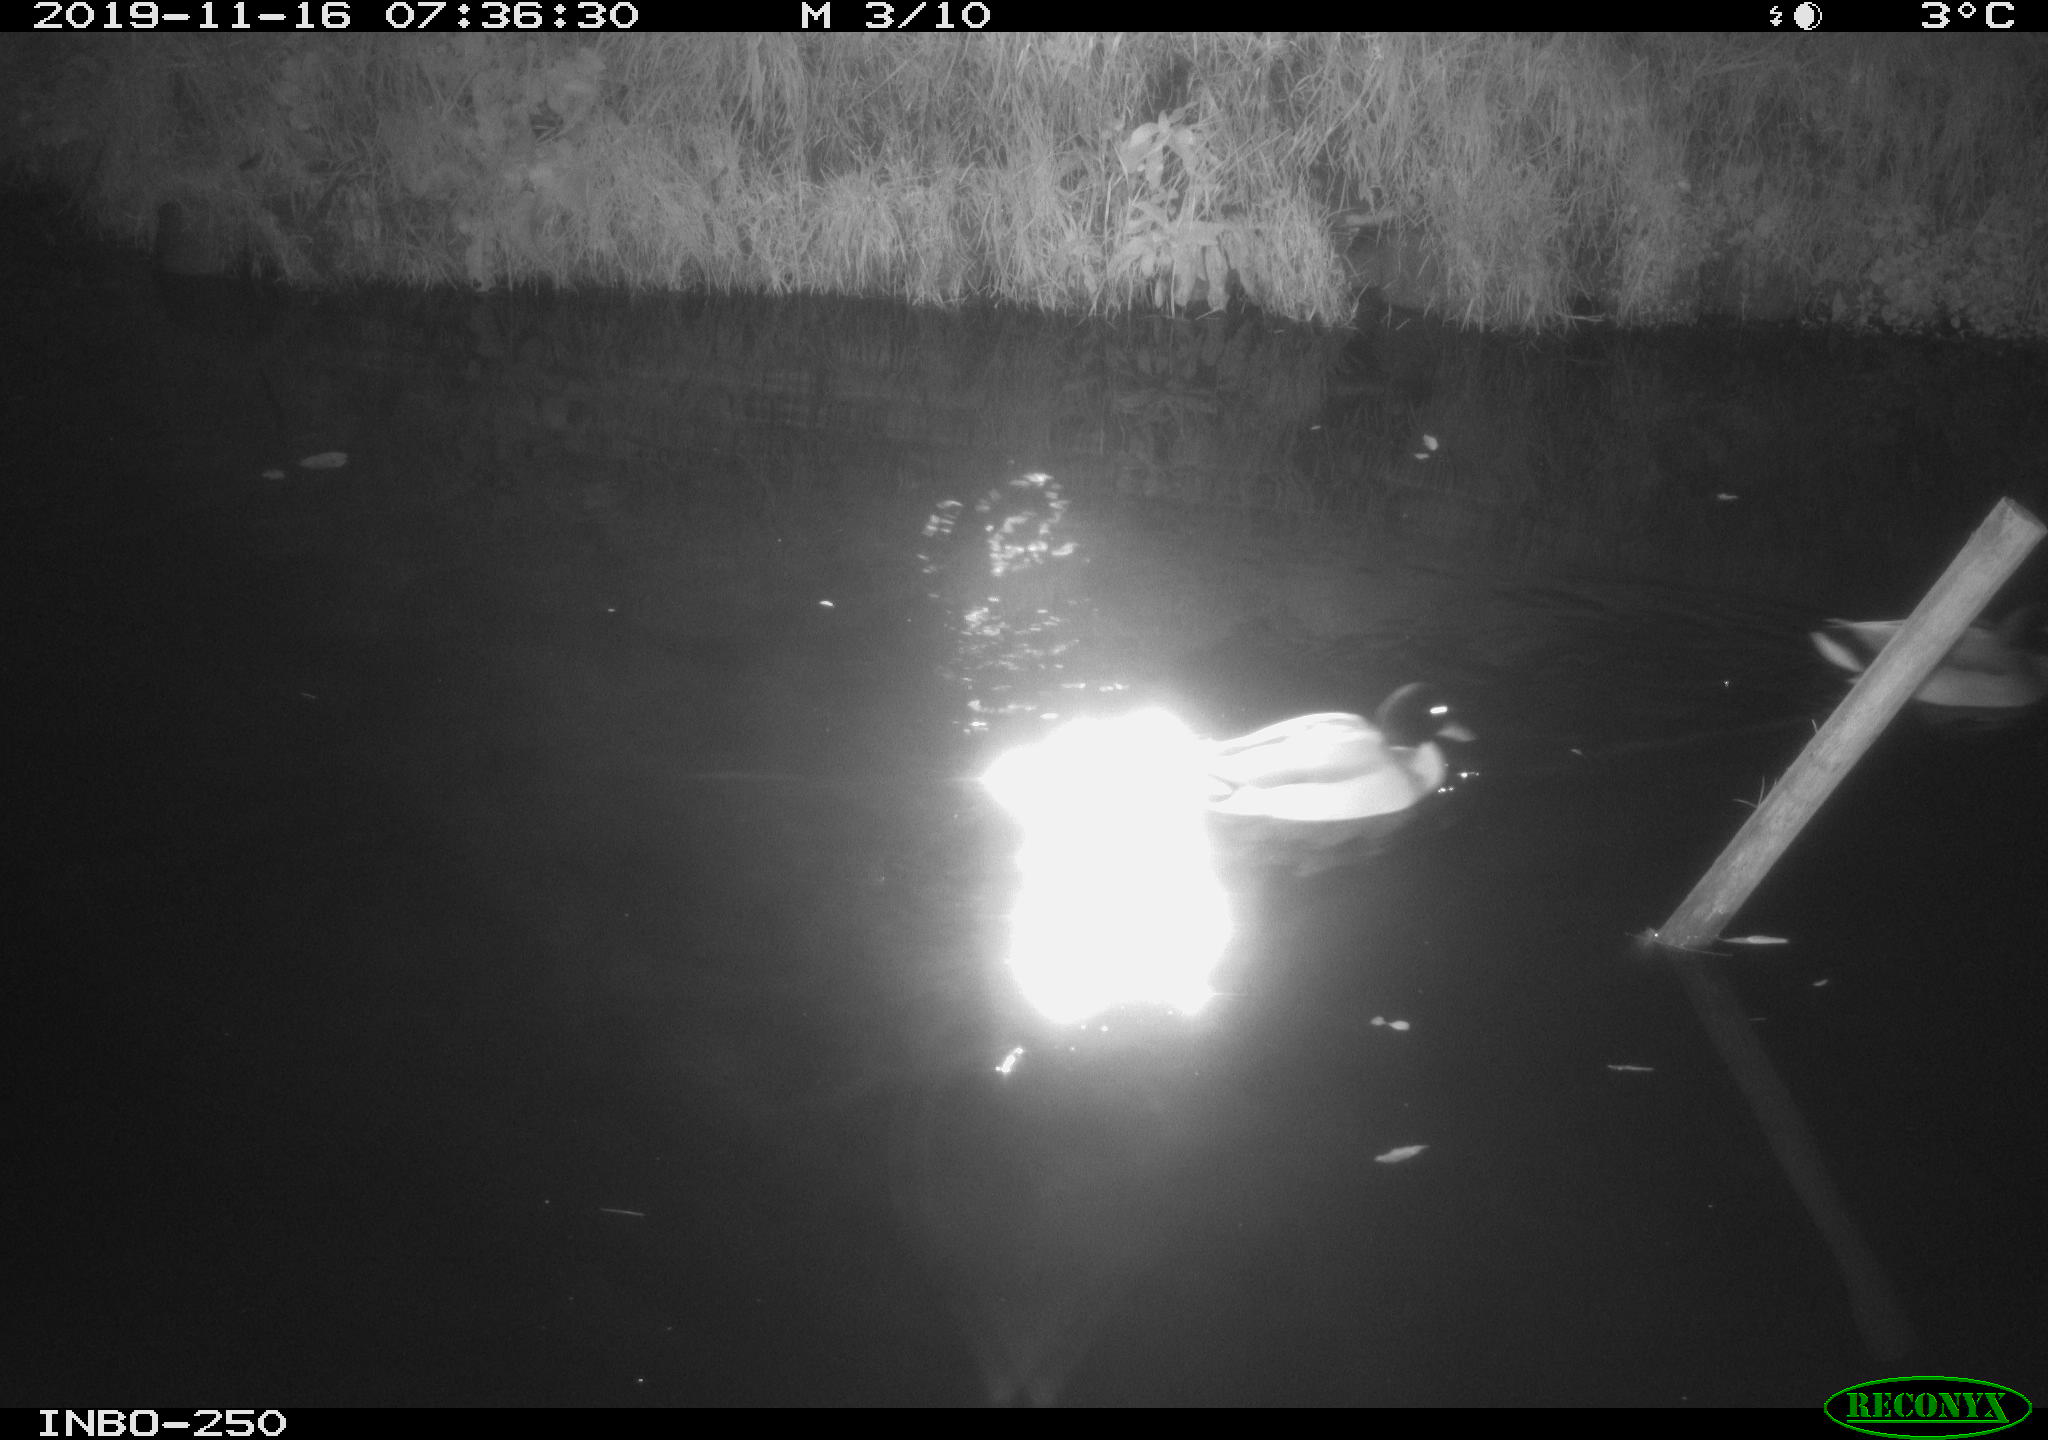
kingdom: Animalia
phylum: Chordata
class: Aves
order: Anseriformes
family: Anatidae
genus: Anas
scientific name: Anas platyrhynchos
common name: Mallard
